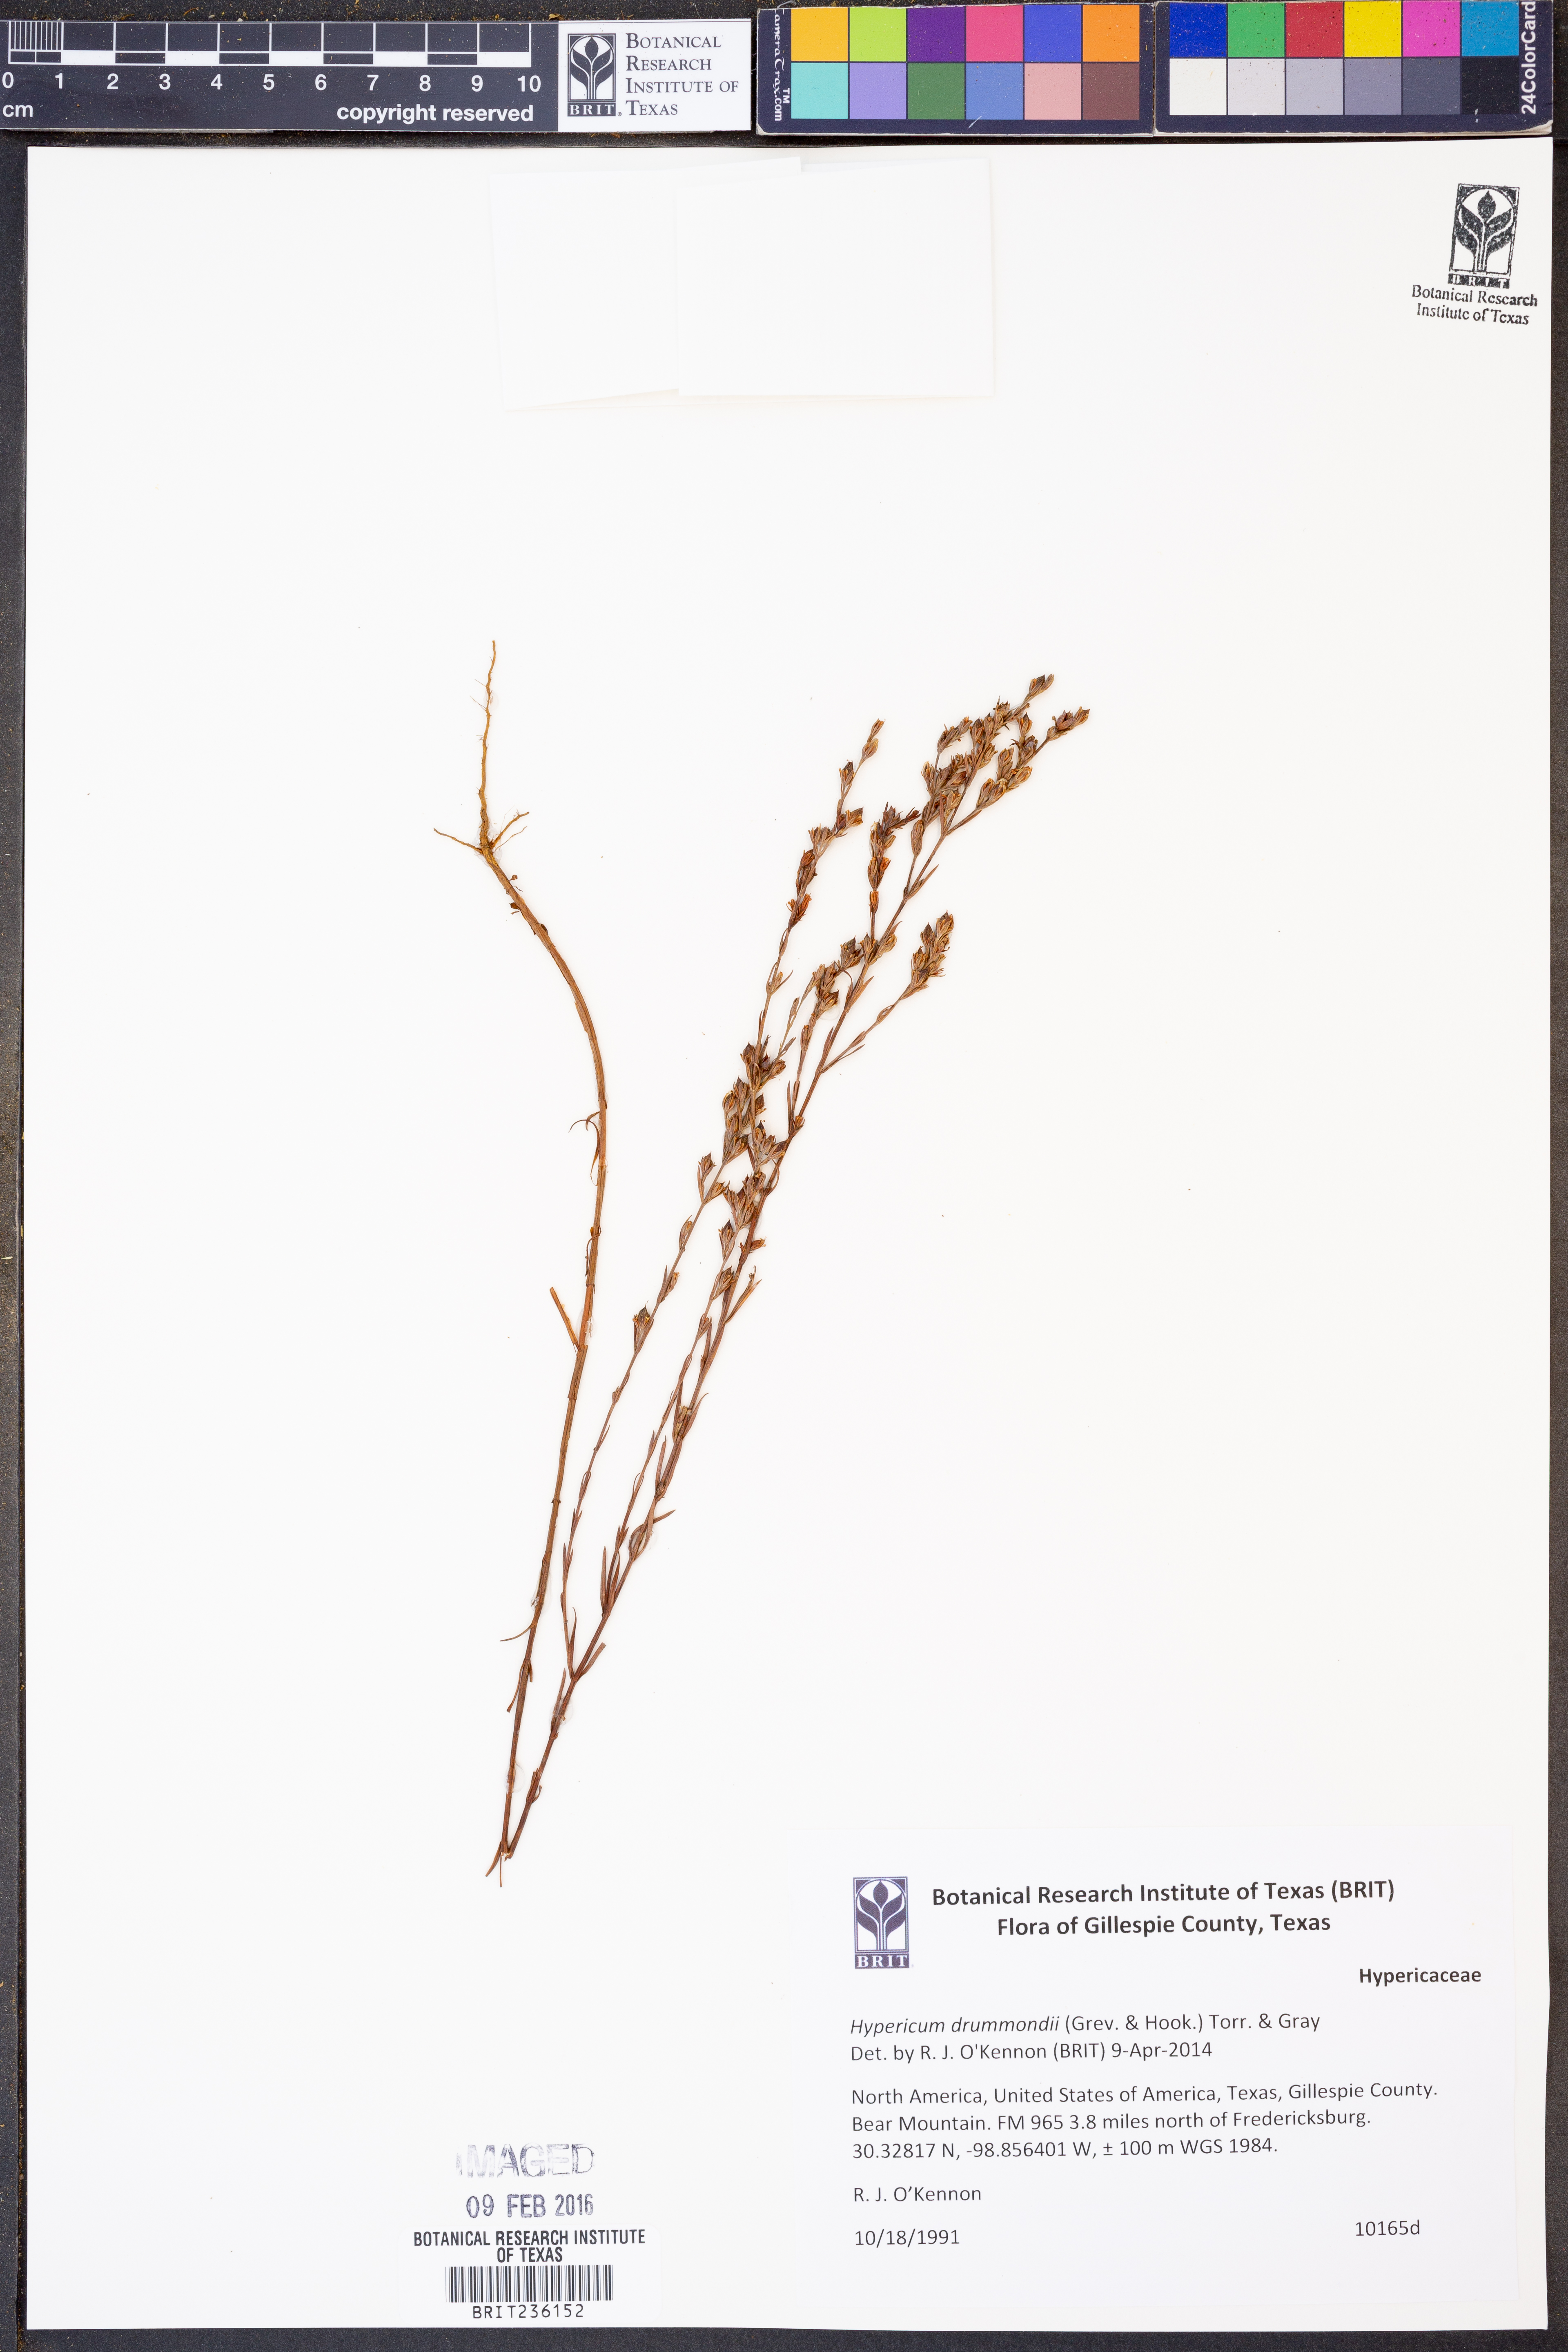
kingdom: Plantae
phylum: Tracheophyta
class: Magnoliopsida
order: Malpighiales
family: Hypericaceae
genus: Hypericum
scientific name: Hypericum drummondii
